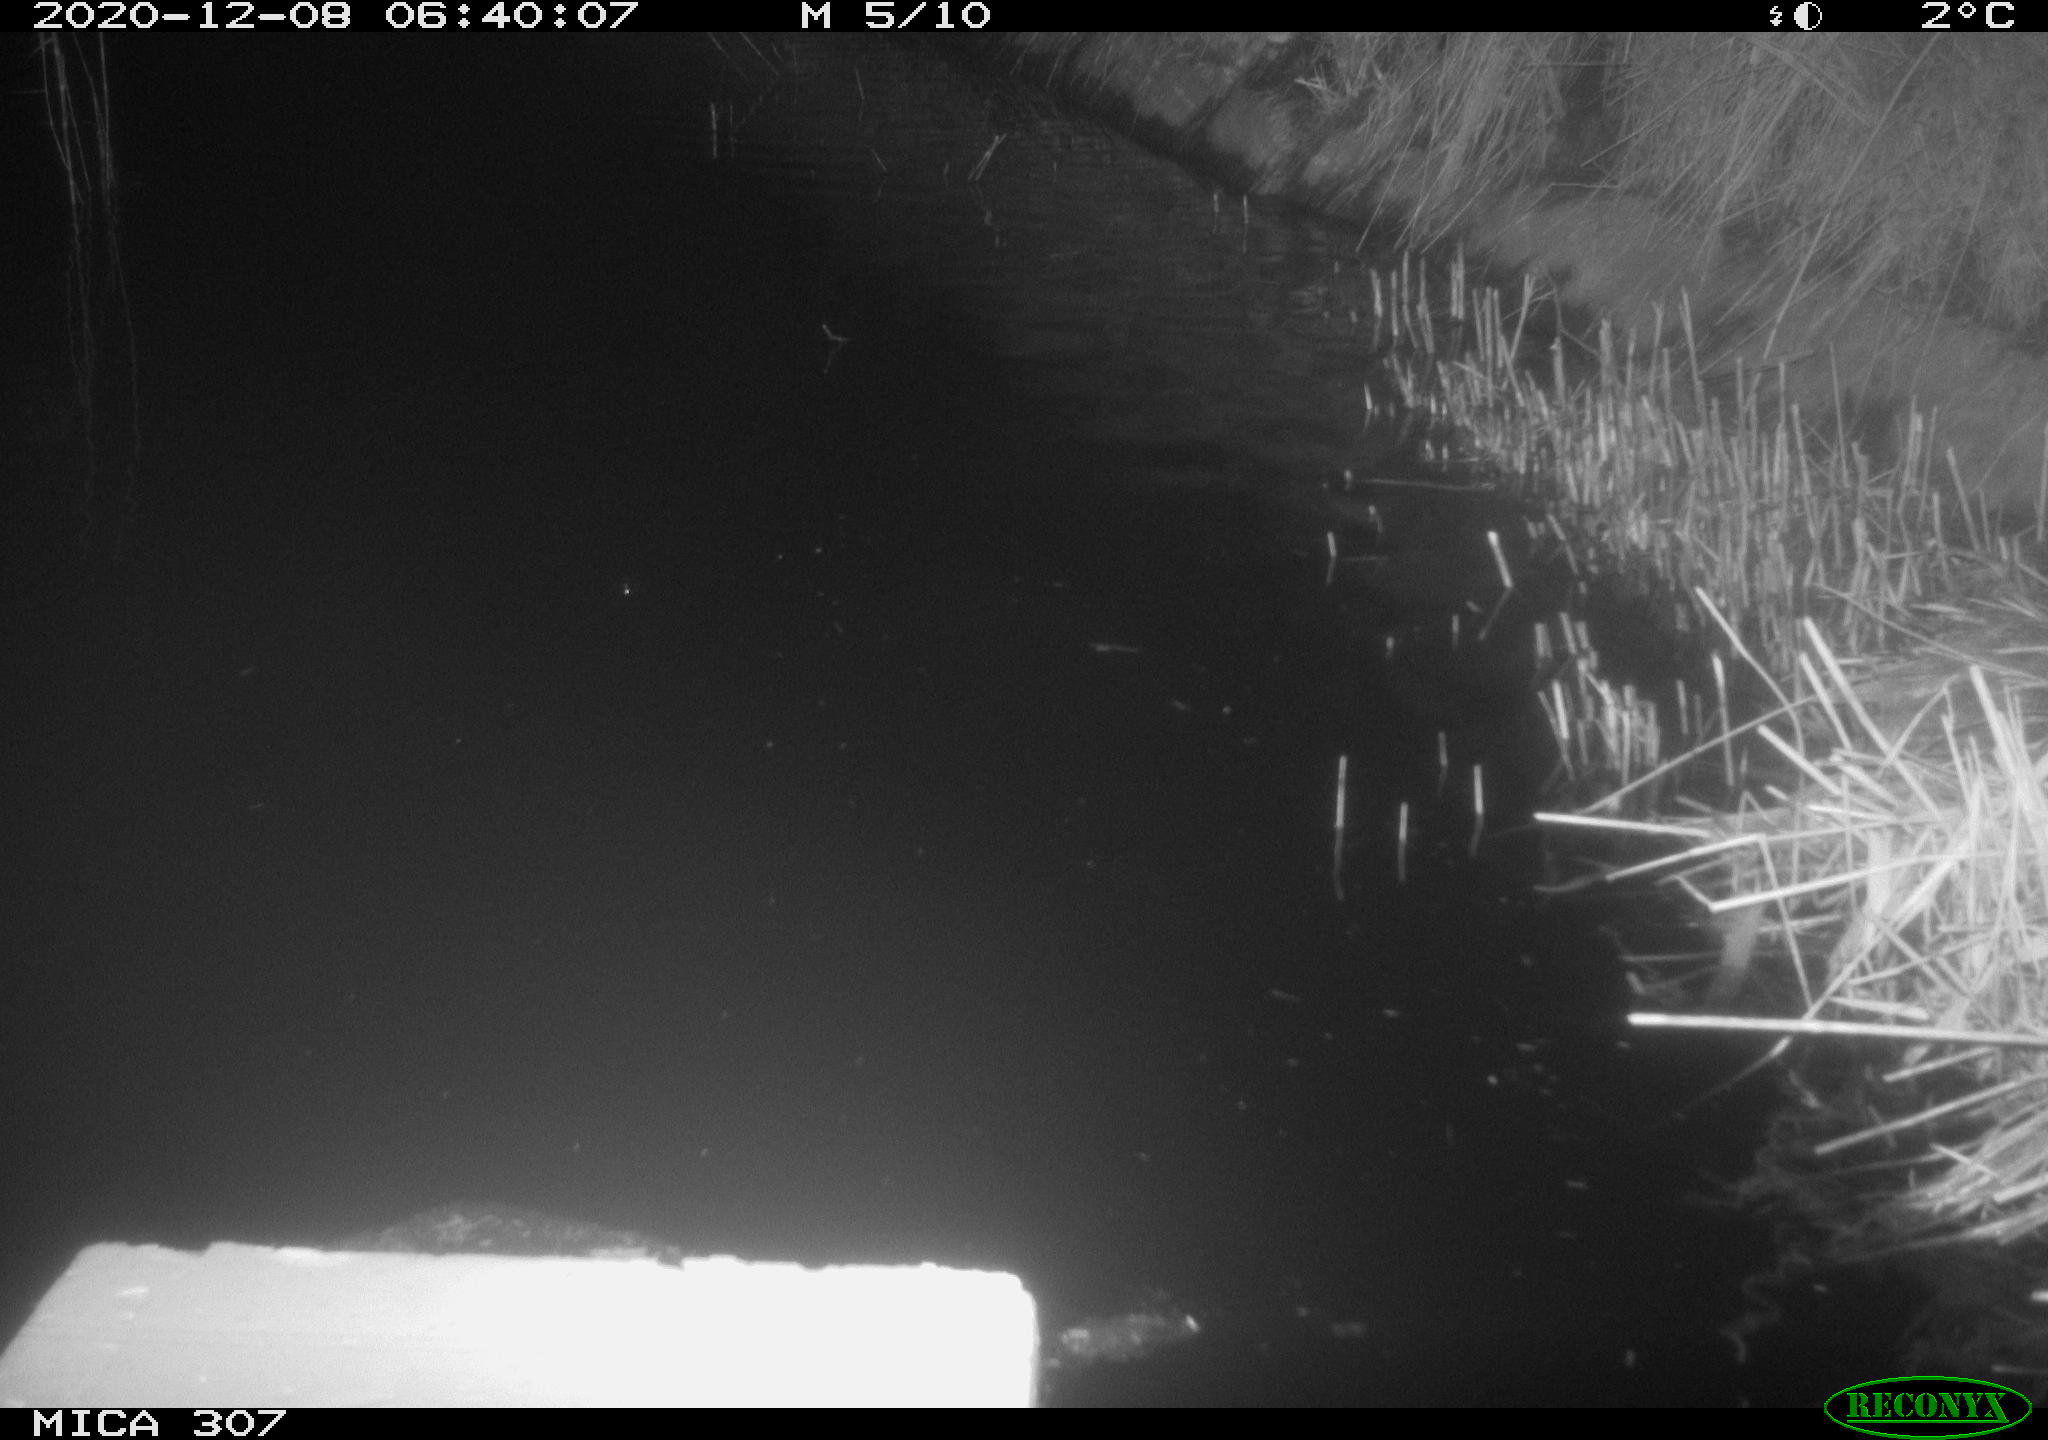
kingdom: Animalia
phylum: Chordata
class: Mammalia
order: Rodentia
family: Muridae
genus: Rattus
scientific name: Rattus norvegicus
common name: Brown rat
